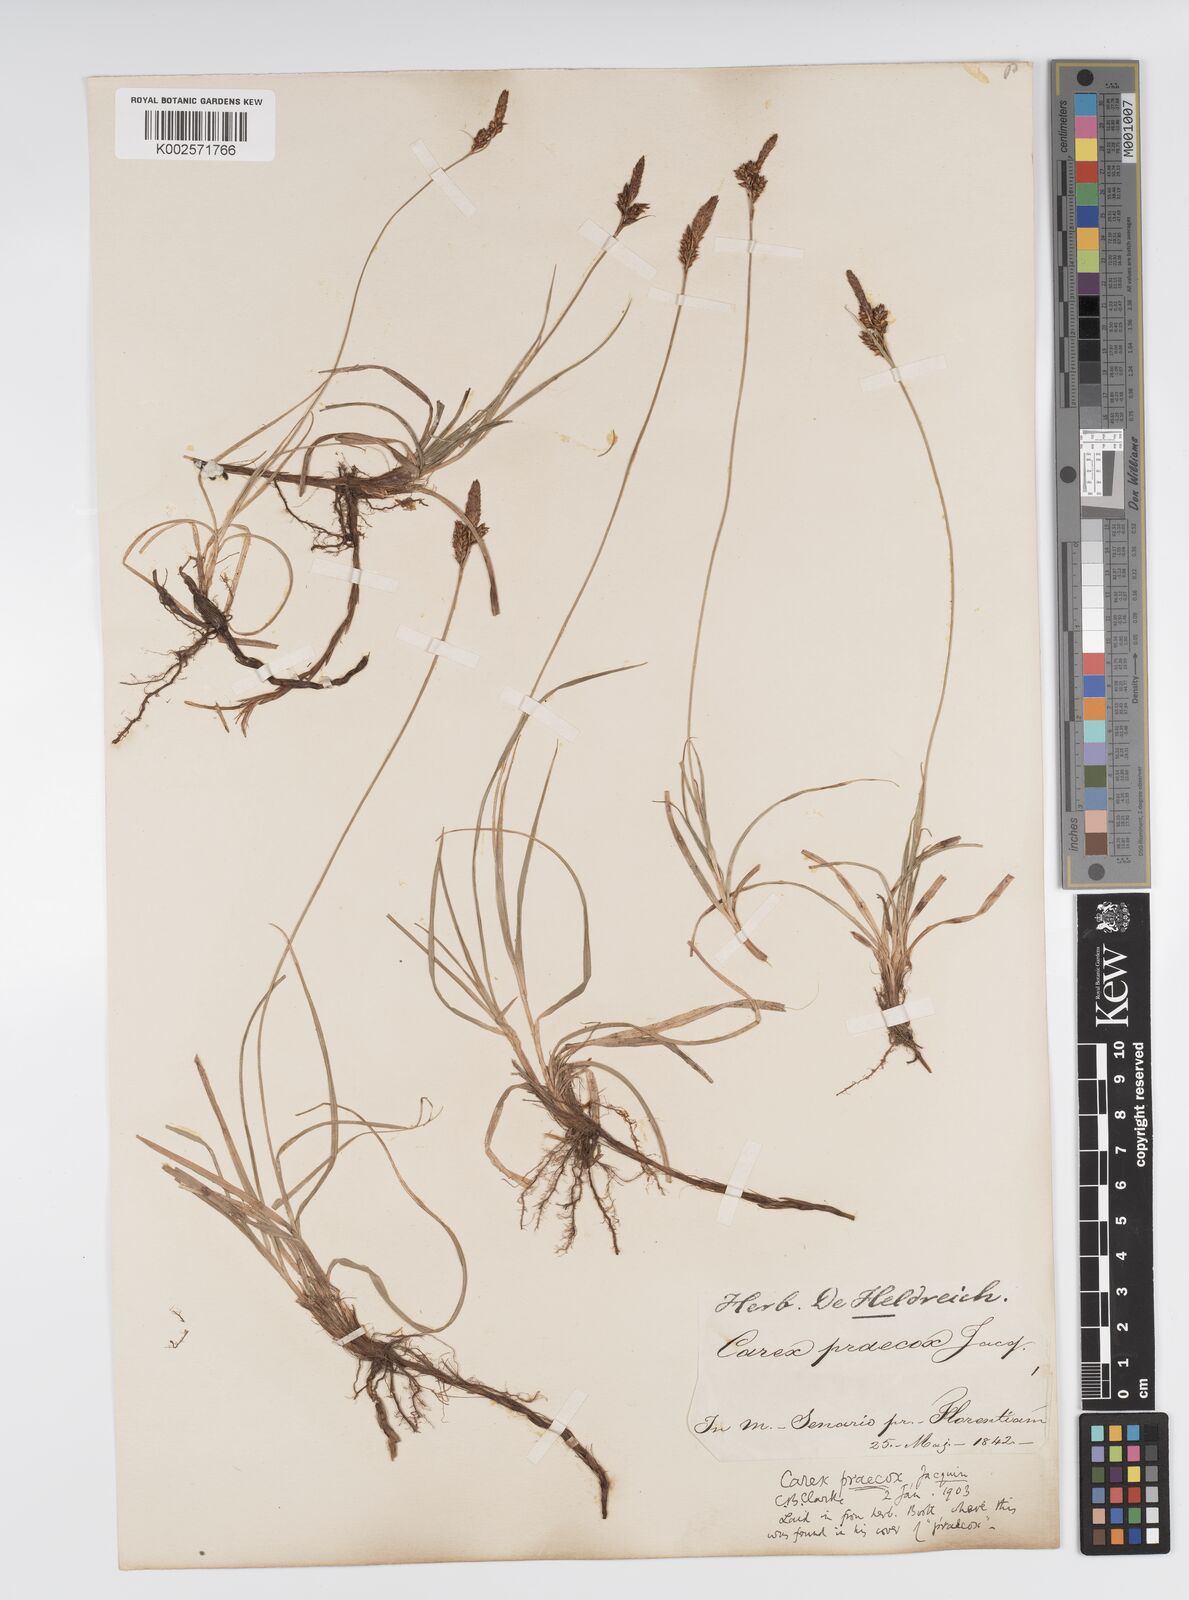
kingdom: Plantae
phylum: Tracheophyta
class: Liliopsida
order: Poales
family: Cyperaceae
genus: Carex
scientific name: Carex caryophyllea
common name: Spring sedge
